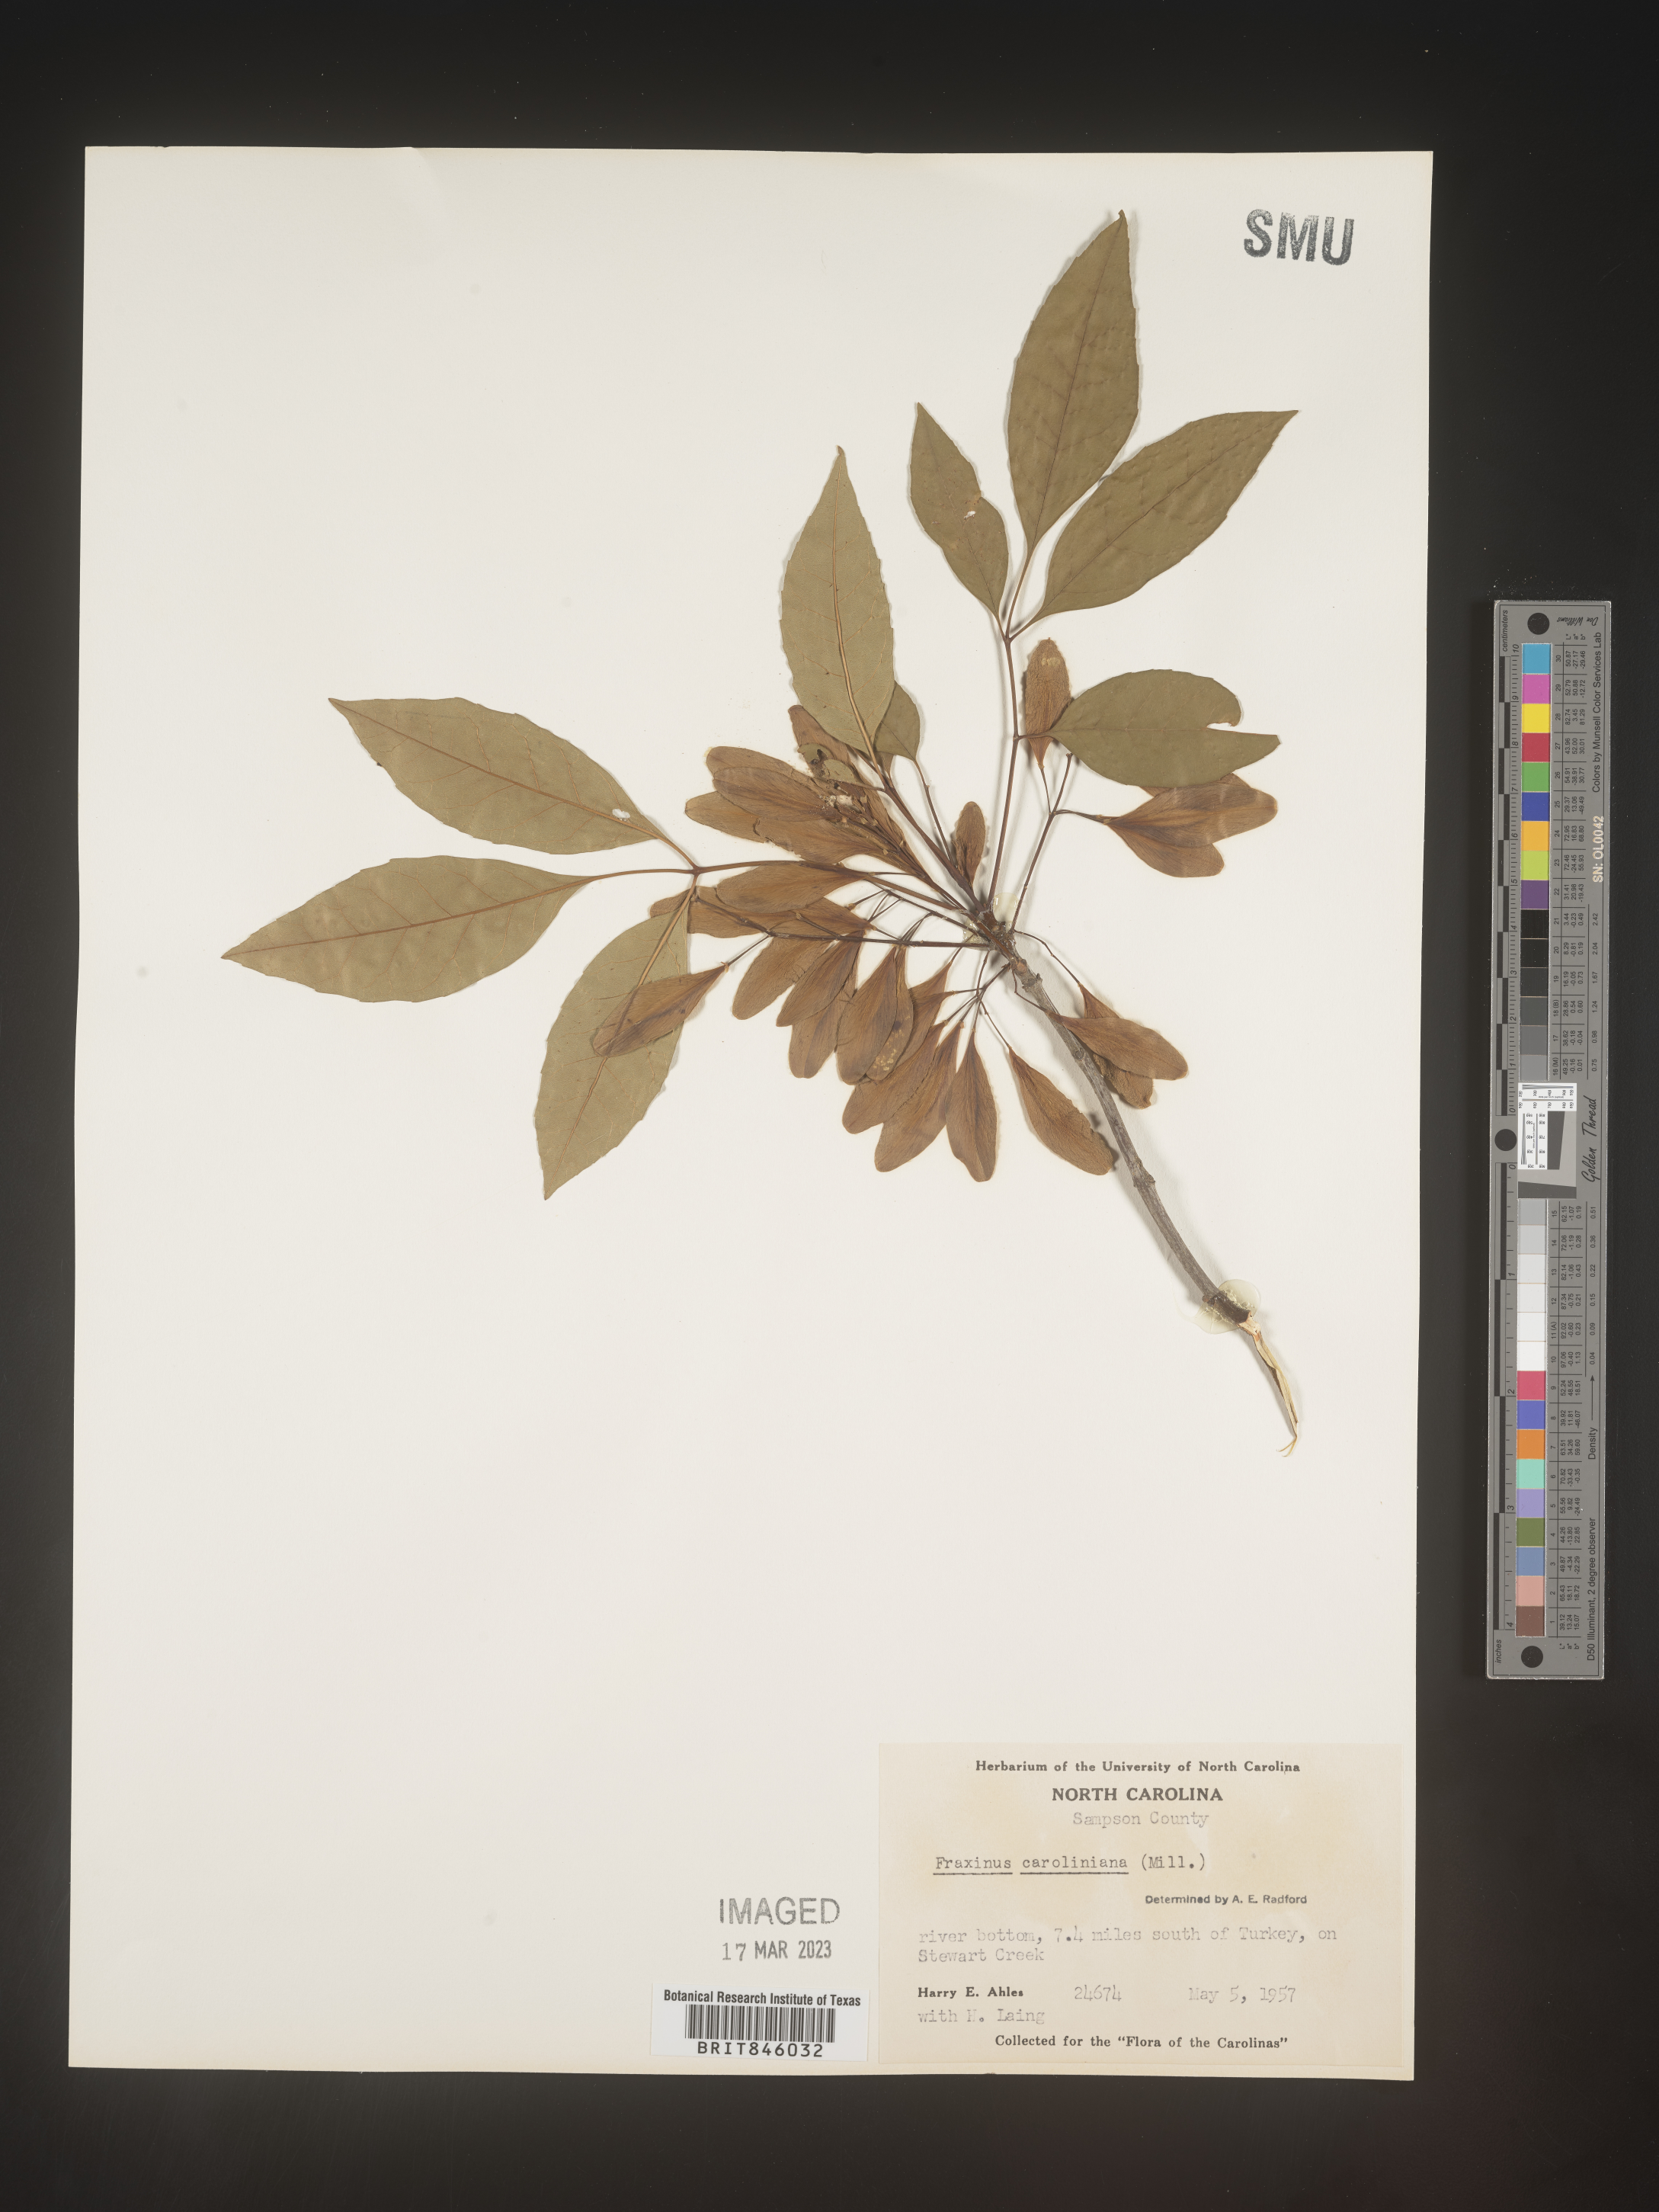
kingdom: Plantae
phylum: Tracheophyta
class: Magnoliopsida
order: Lamiales
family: Oleaceae
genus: Fraxinus
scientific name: Fraxinus caroliniana
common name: Carolina ash
